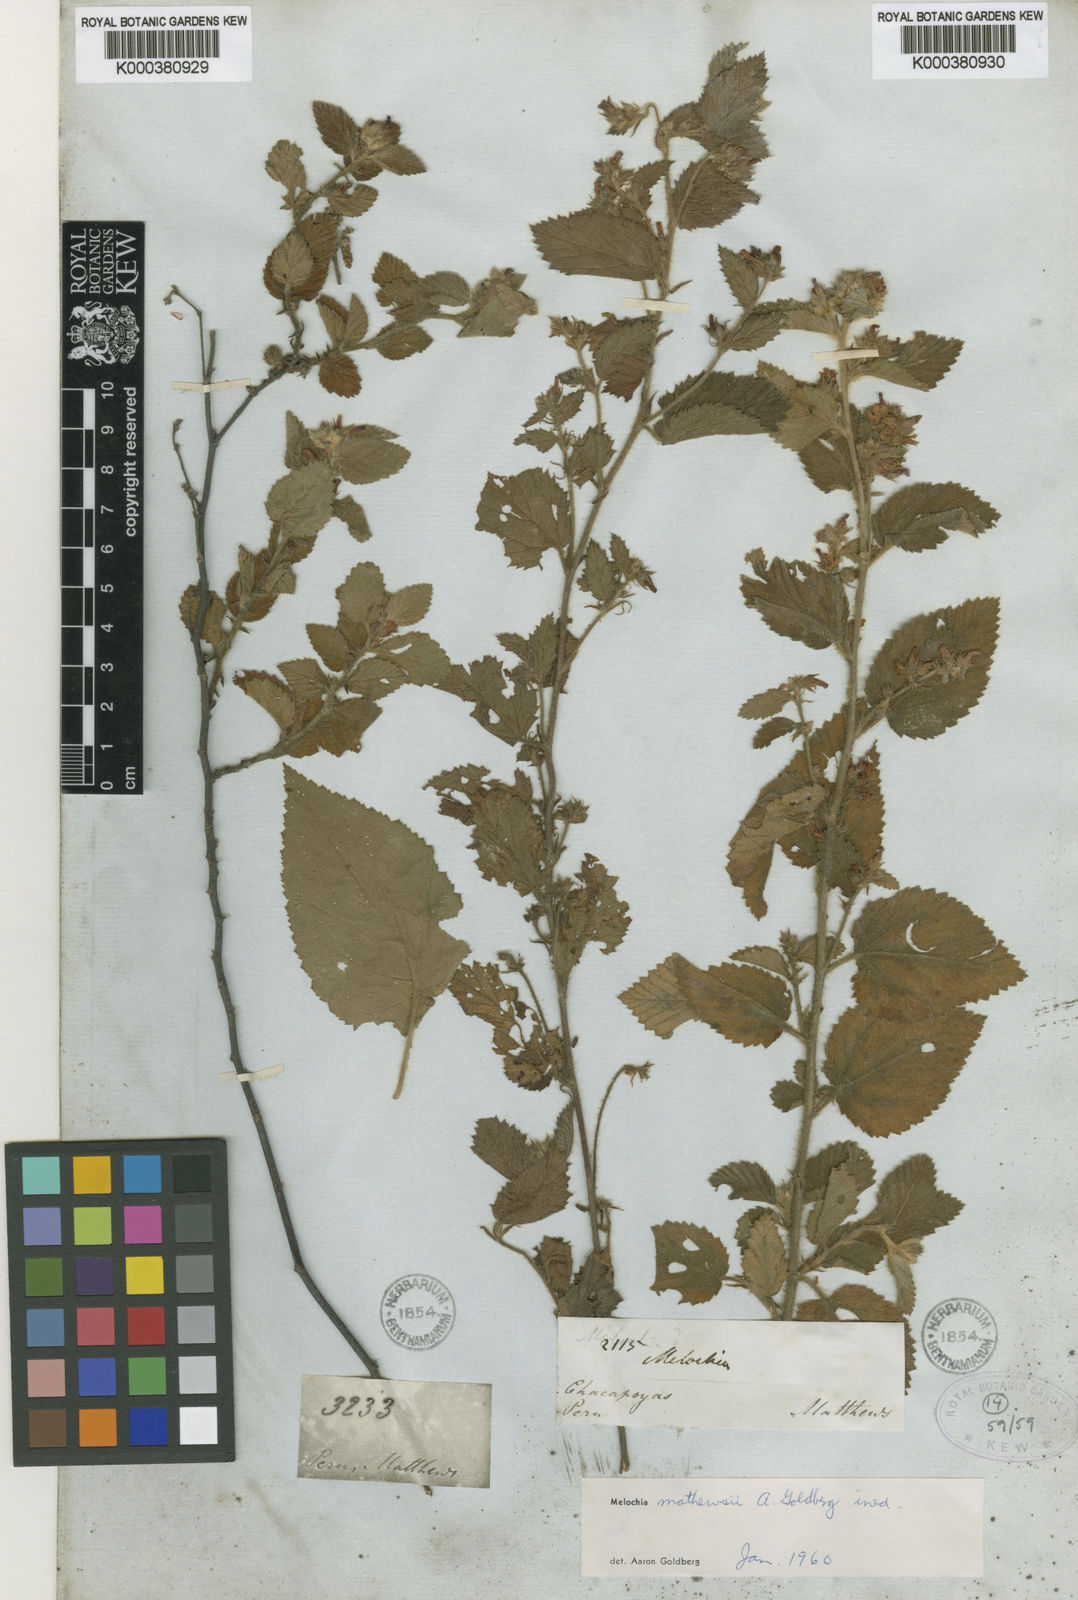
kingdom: Plantae
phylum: Tracheophyta
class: Magnoliopsida
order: Malvales
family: Malvaceae
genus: Melochia
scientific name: Melochia
